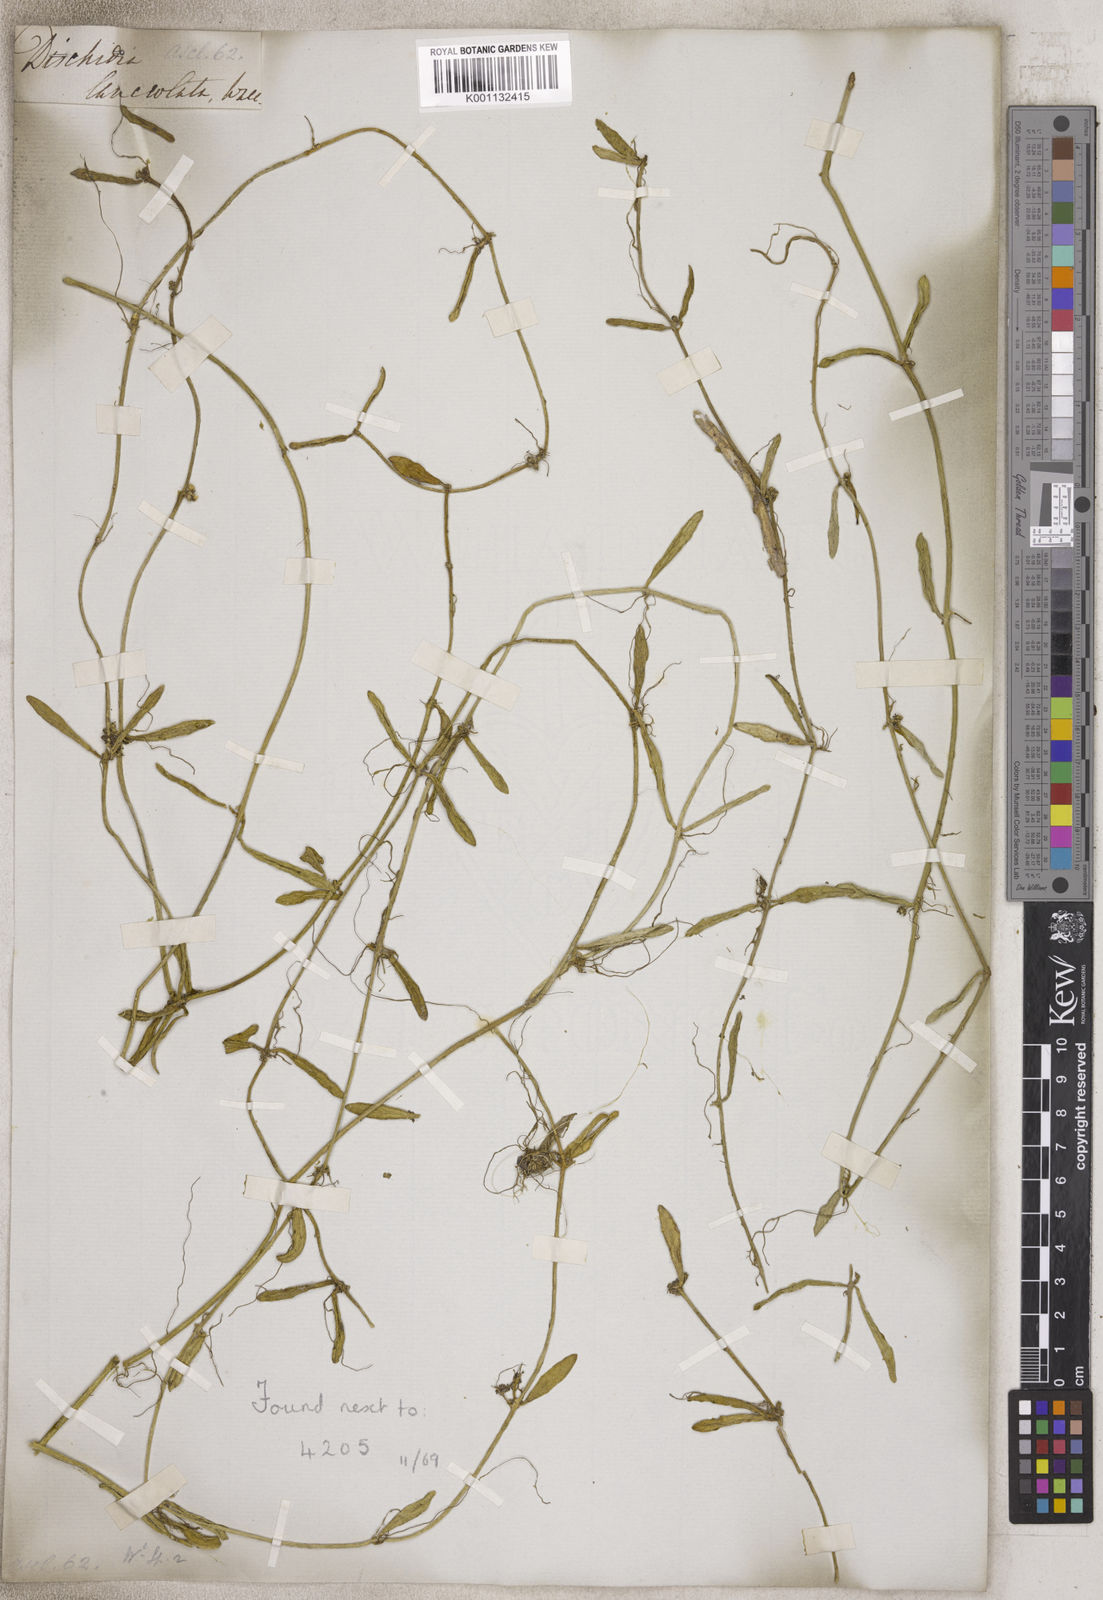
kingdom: Plantae
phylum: Tracheophyta
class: Magnoliopsida
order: Gentianales
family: Apocynaceae
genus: Dischidia
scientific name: Dischidia
